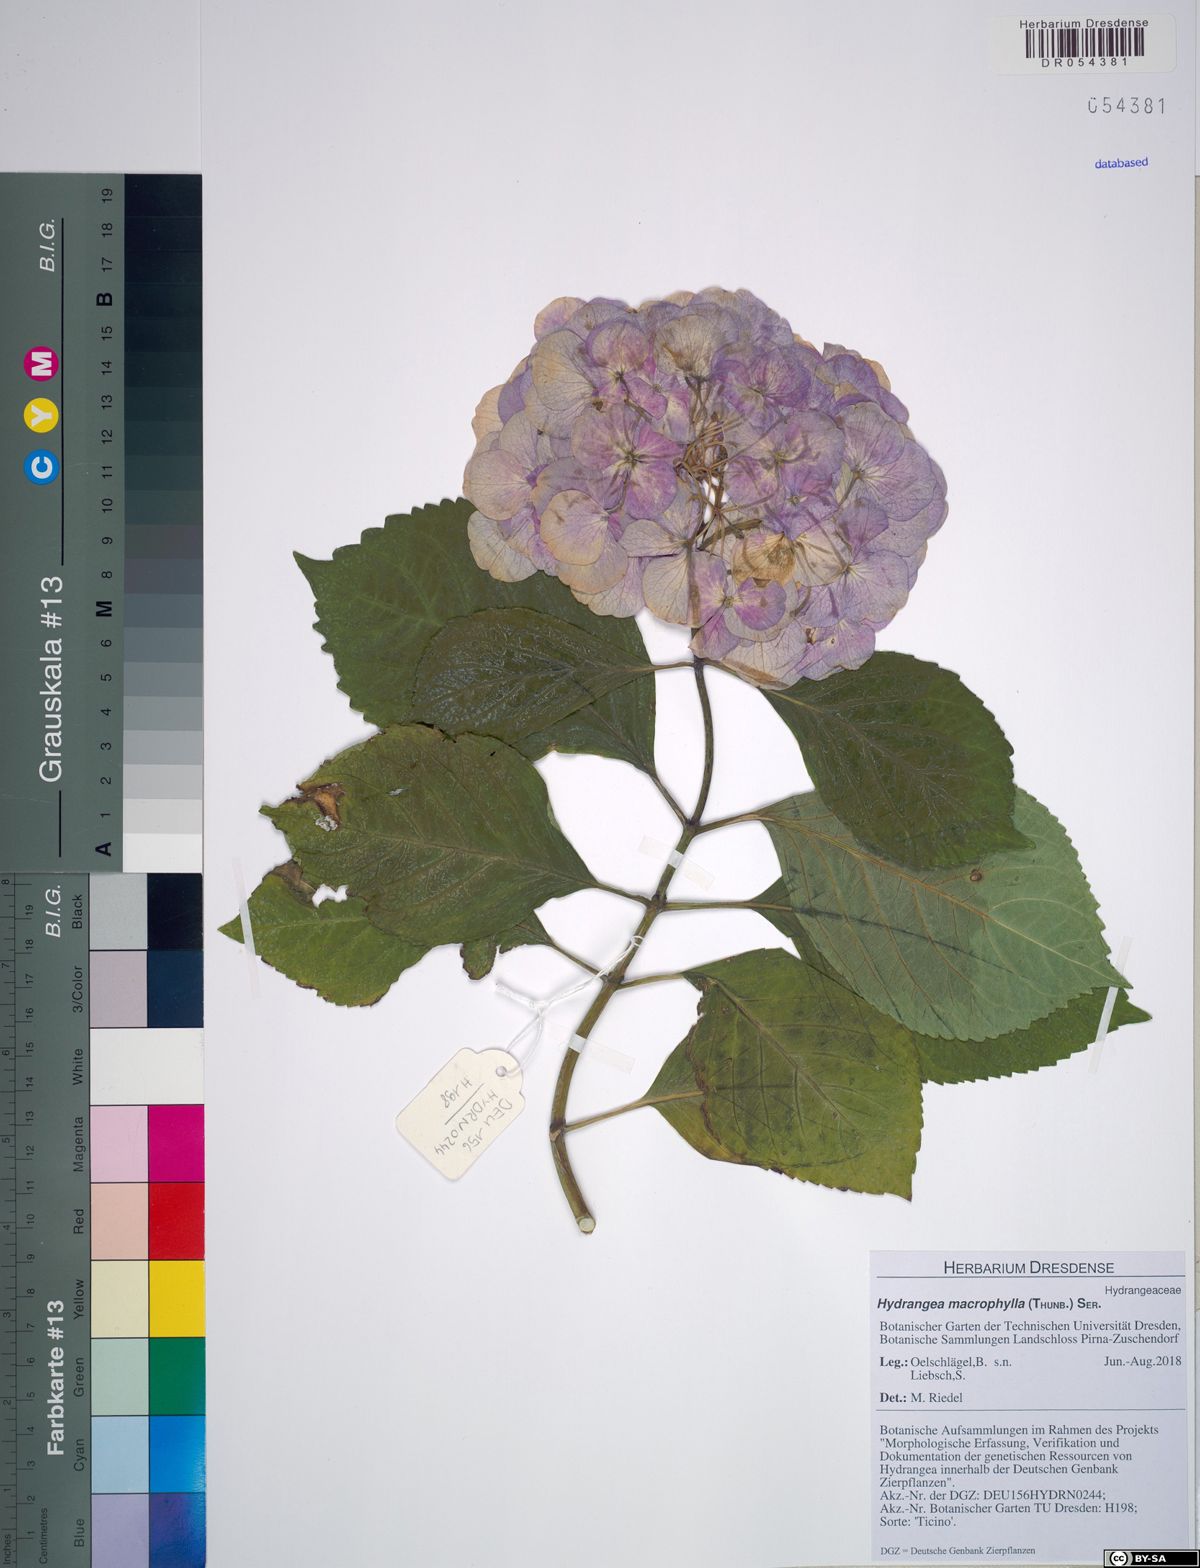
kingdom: Plantae
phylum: Tracheophyta
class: Magnoliopsida
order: Cornales
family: Hydrangeaceae
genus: Hydrangea
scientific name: Hydrangea macrophylla
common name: Hydrangea
